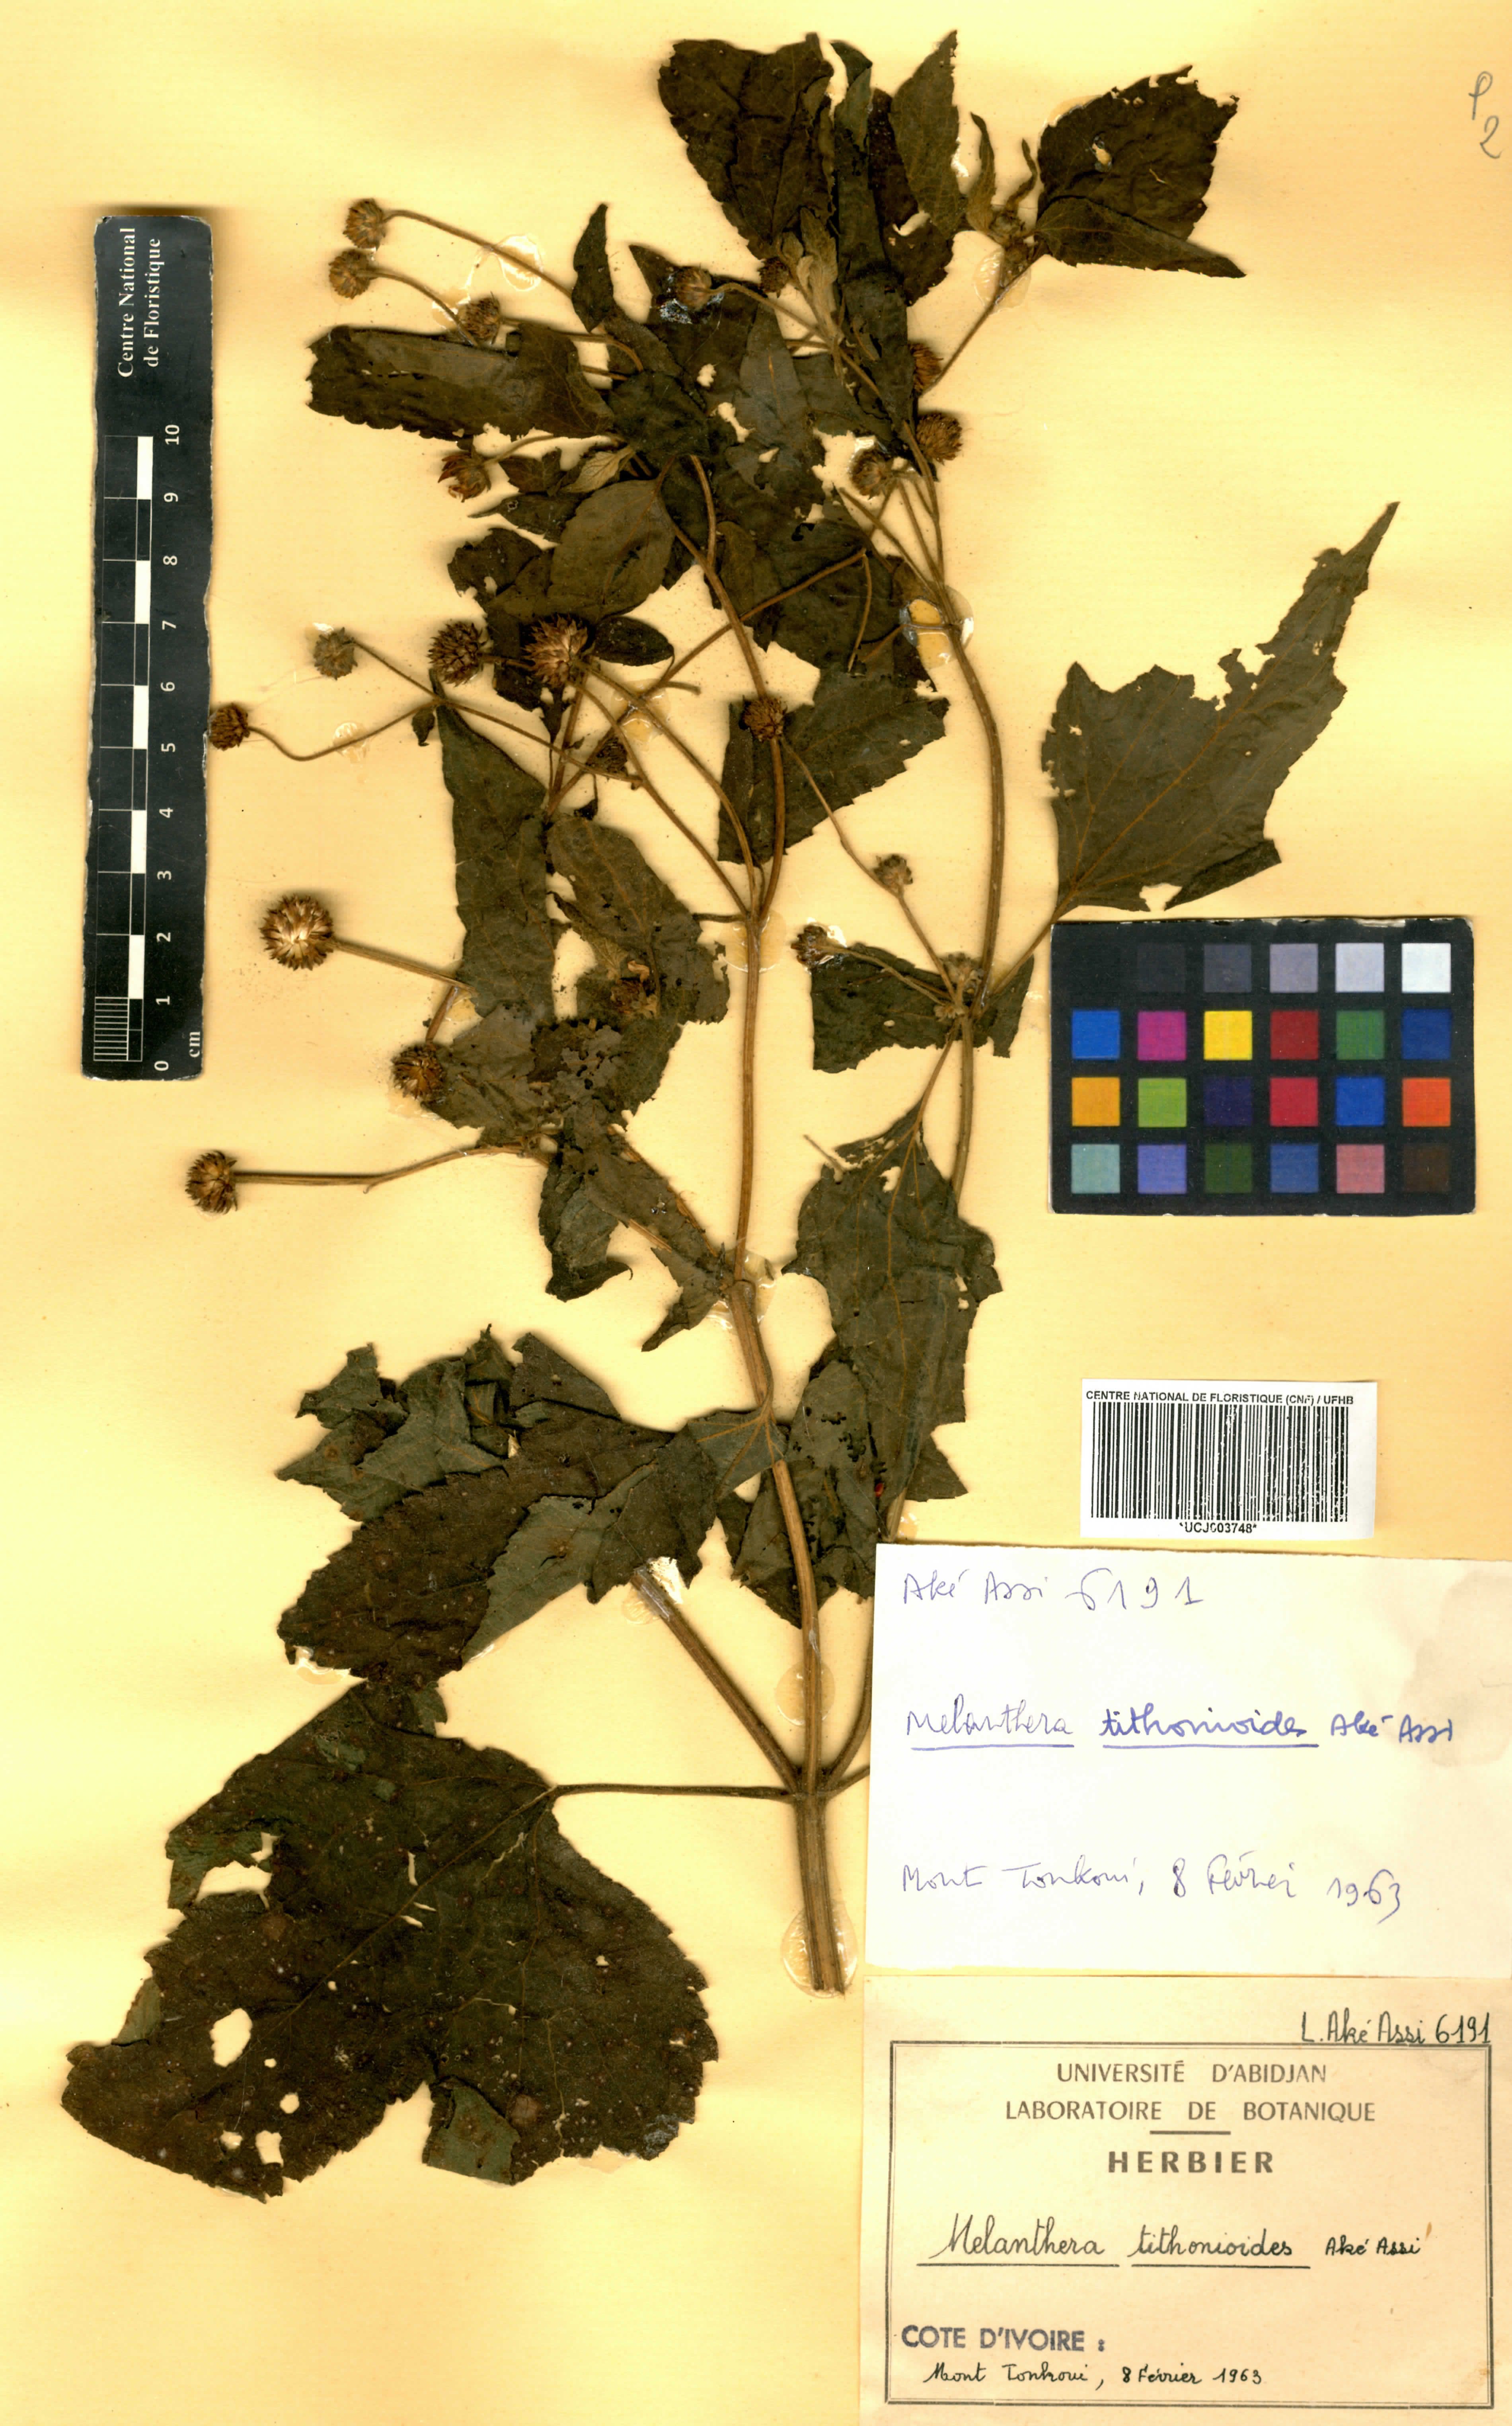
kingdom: Plantae
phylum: Tracheophyta
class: Magnoliopsida
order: Asterales
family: Asteraceae
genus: Lipotriche
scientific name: Lipotriche tithonioides
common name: Simandou daisy
